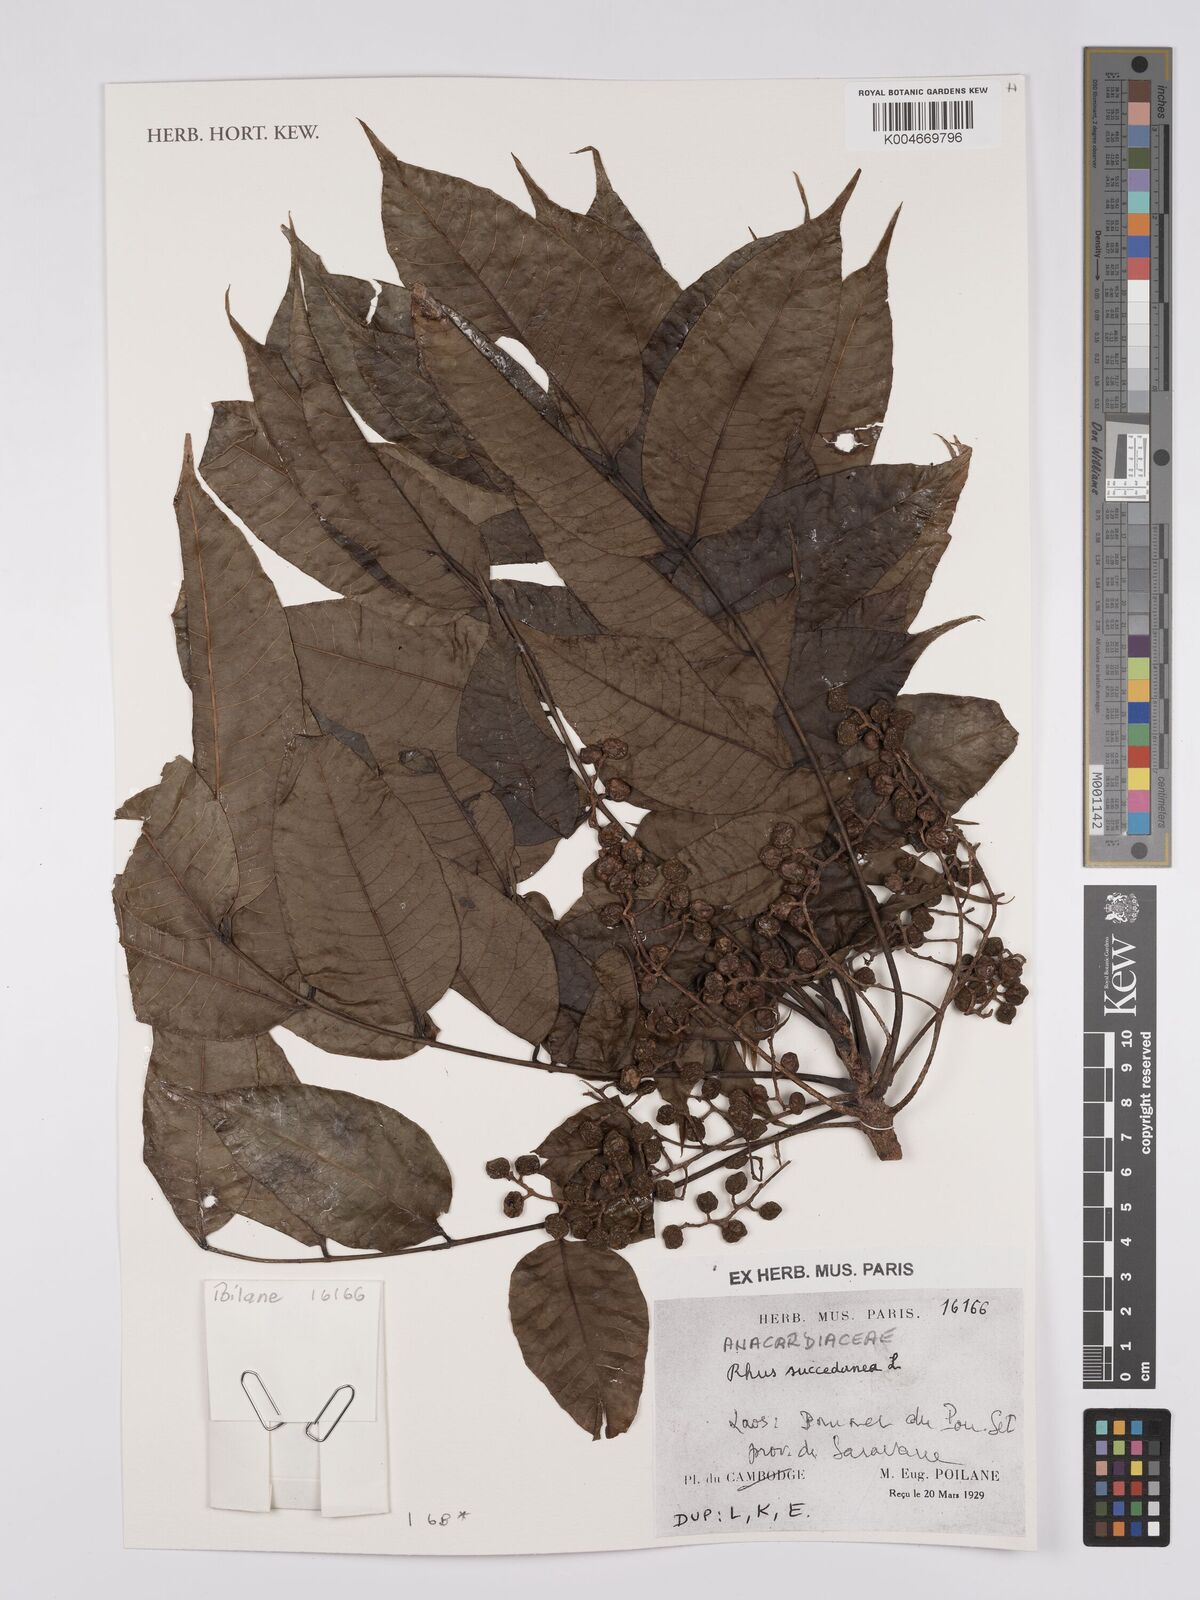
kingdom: Plantae
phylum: Tracheophyta
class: Magnoliopsida
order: Sapindales
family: Anacardiaceae
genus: Toxicodendron
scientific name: Toxicodendron succedaneum
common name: Wax tree
